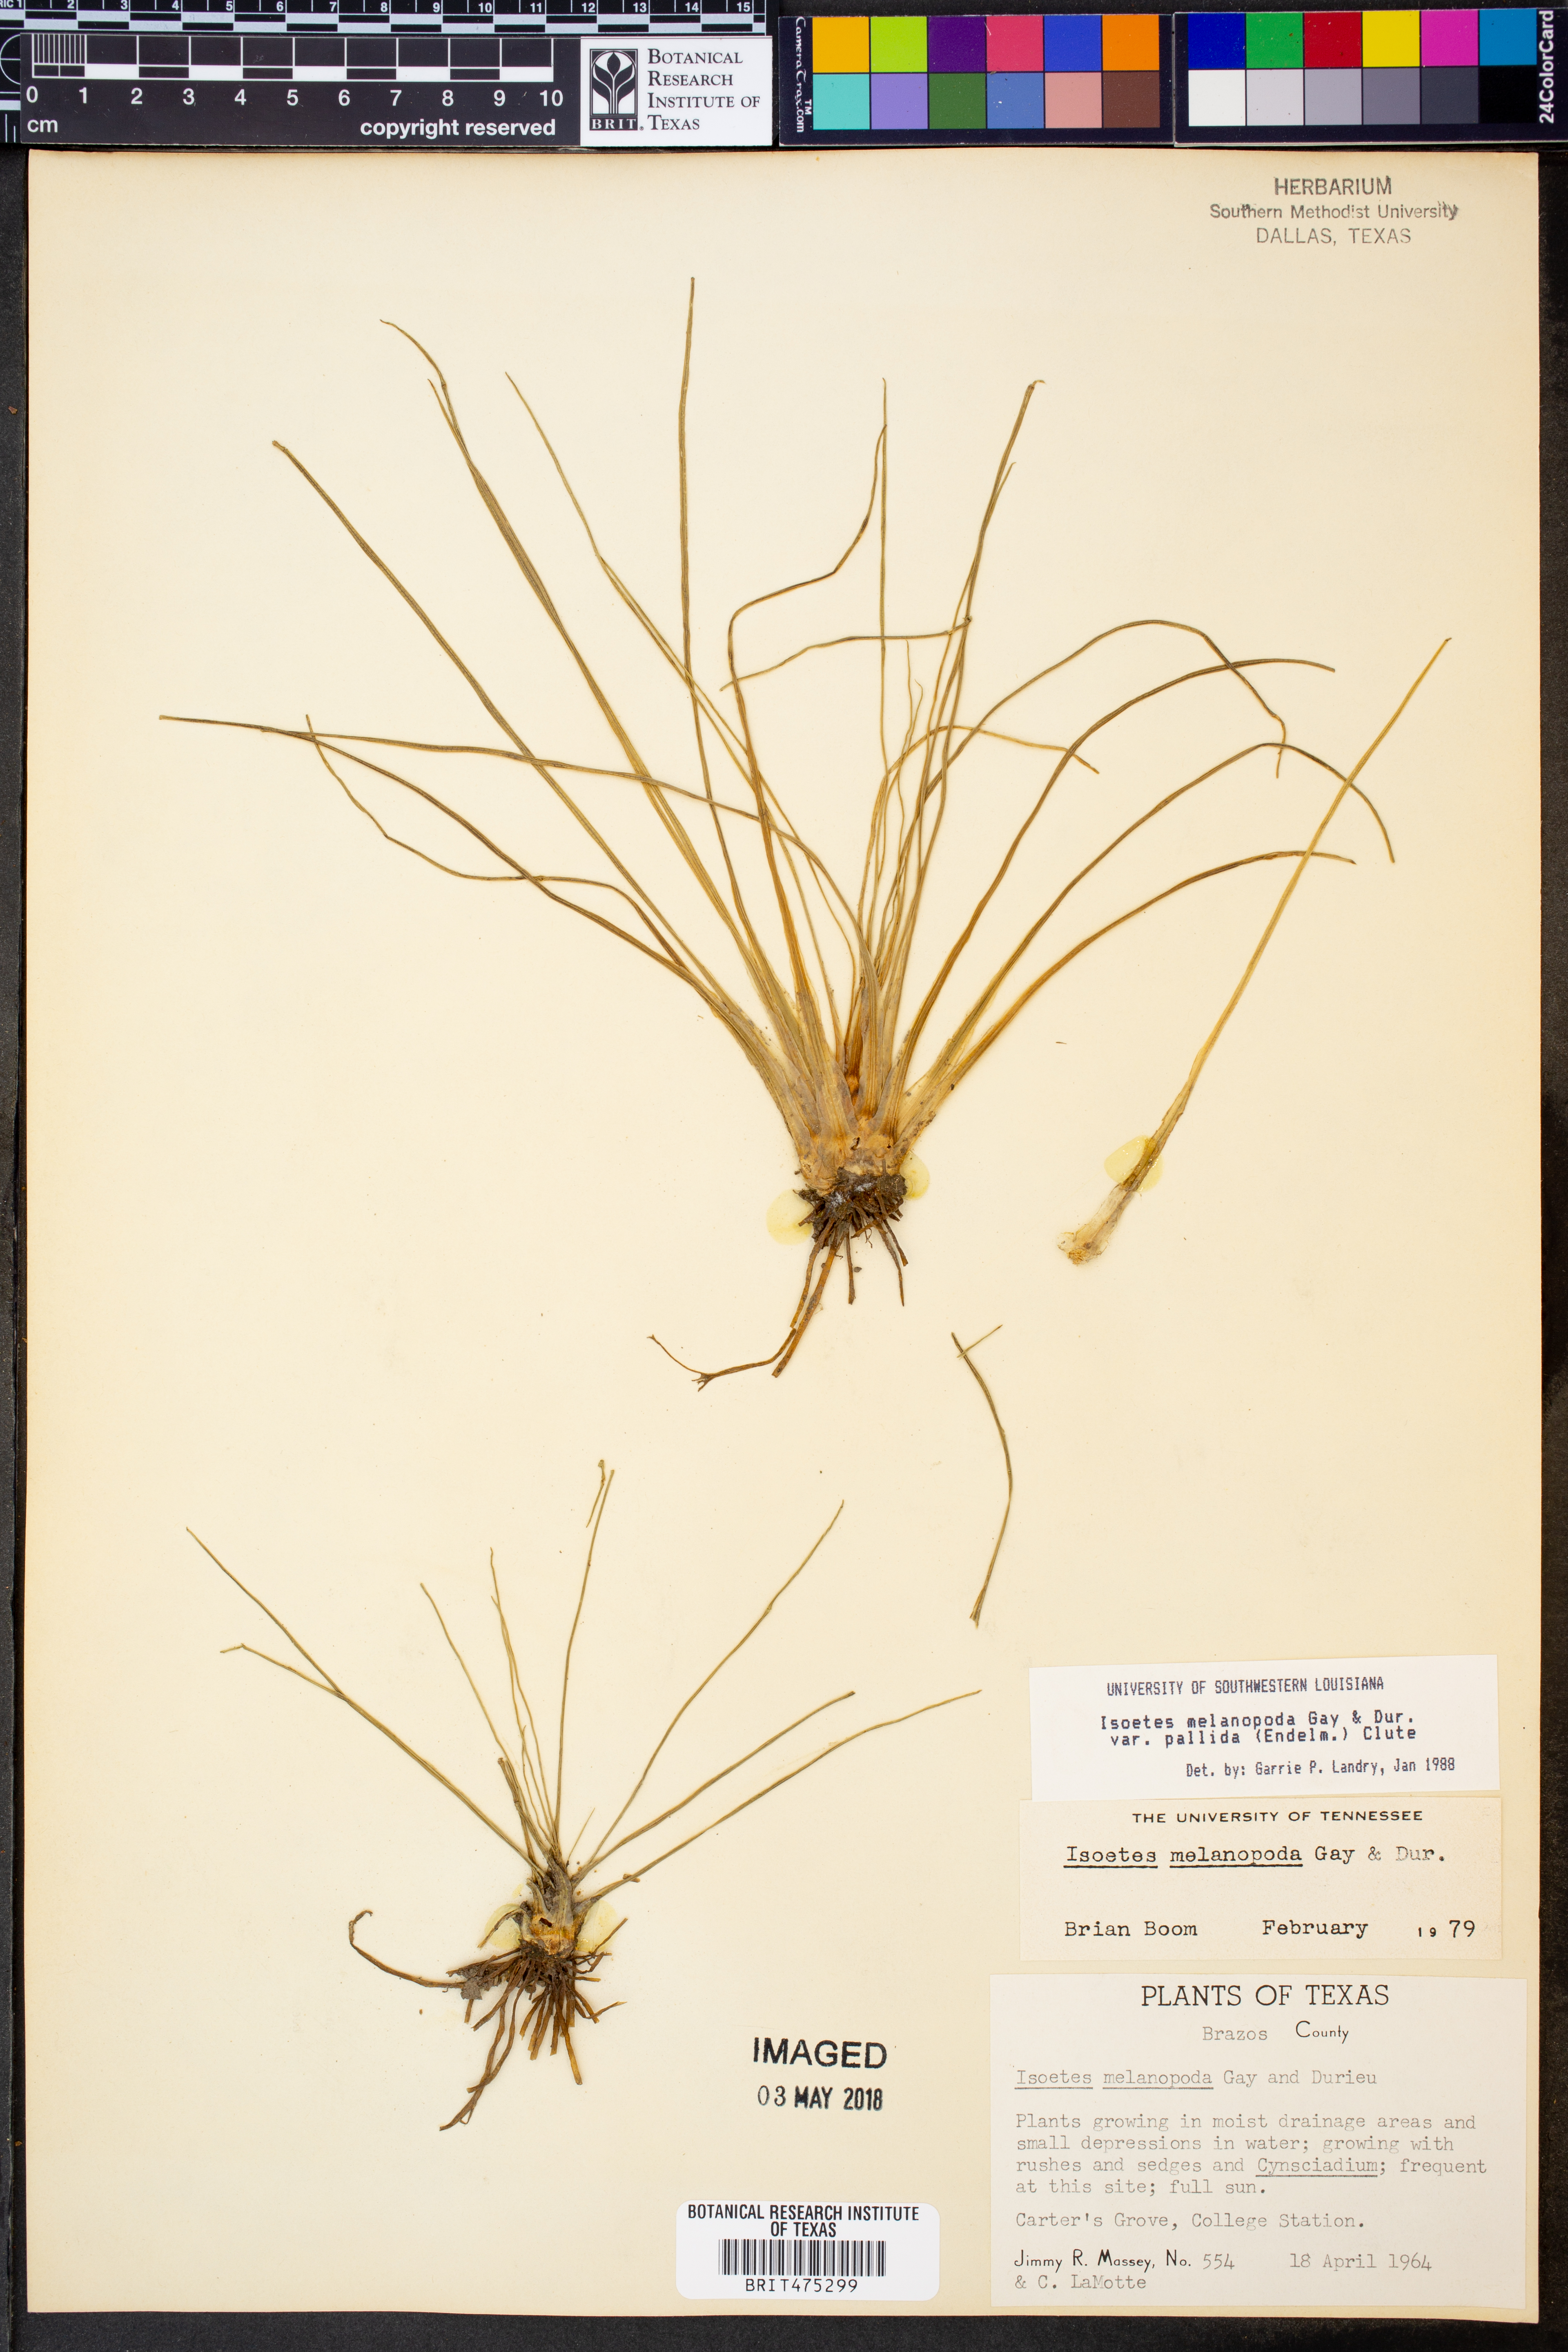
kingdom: Plantae
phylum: Tracheophyta
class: Lycopodiopsida
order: Isoetales
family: Isoetaceae
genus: Isoetes
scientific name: Isoetes melanopoda
